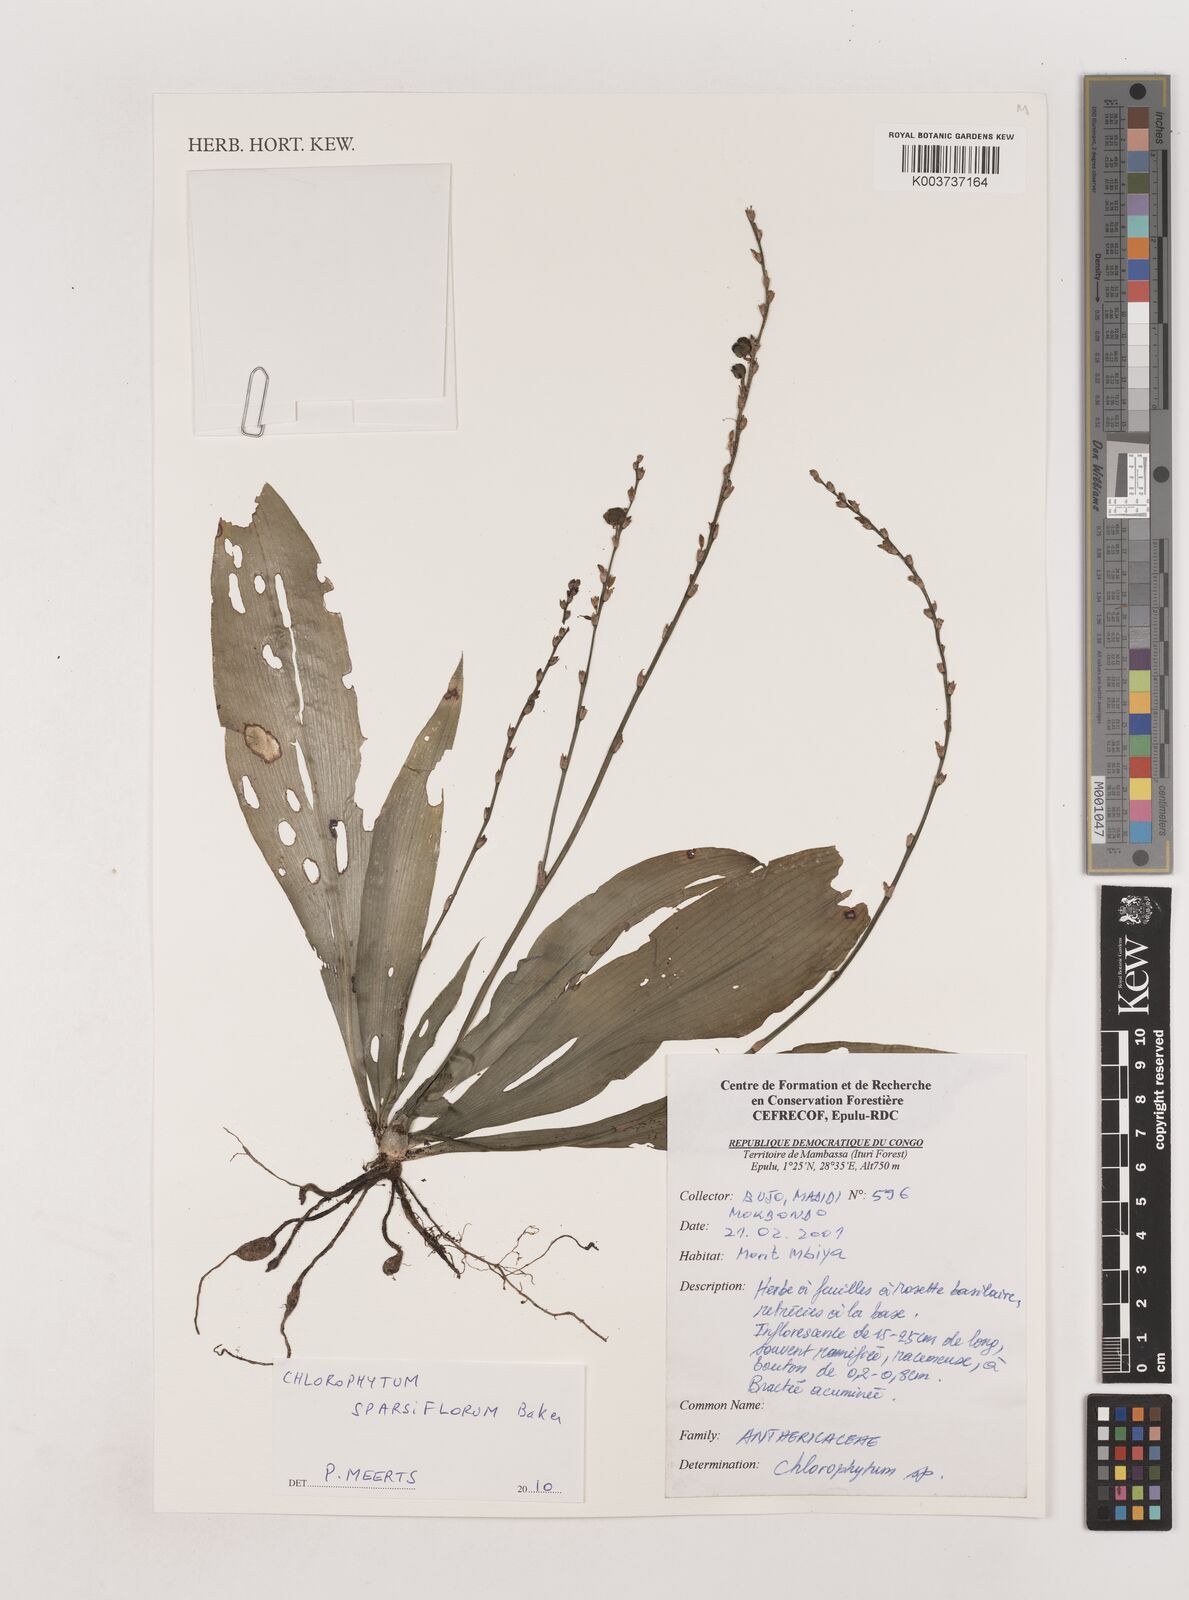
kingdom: Plantae
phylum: Tracheophyta
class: Liliopsida
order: Asparagales
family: Asparagaceae
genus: Chlorophytum
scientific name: Chlorophytum sparsiflorum
